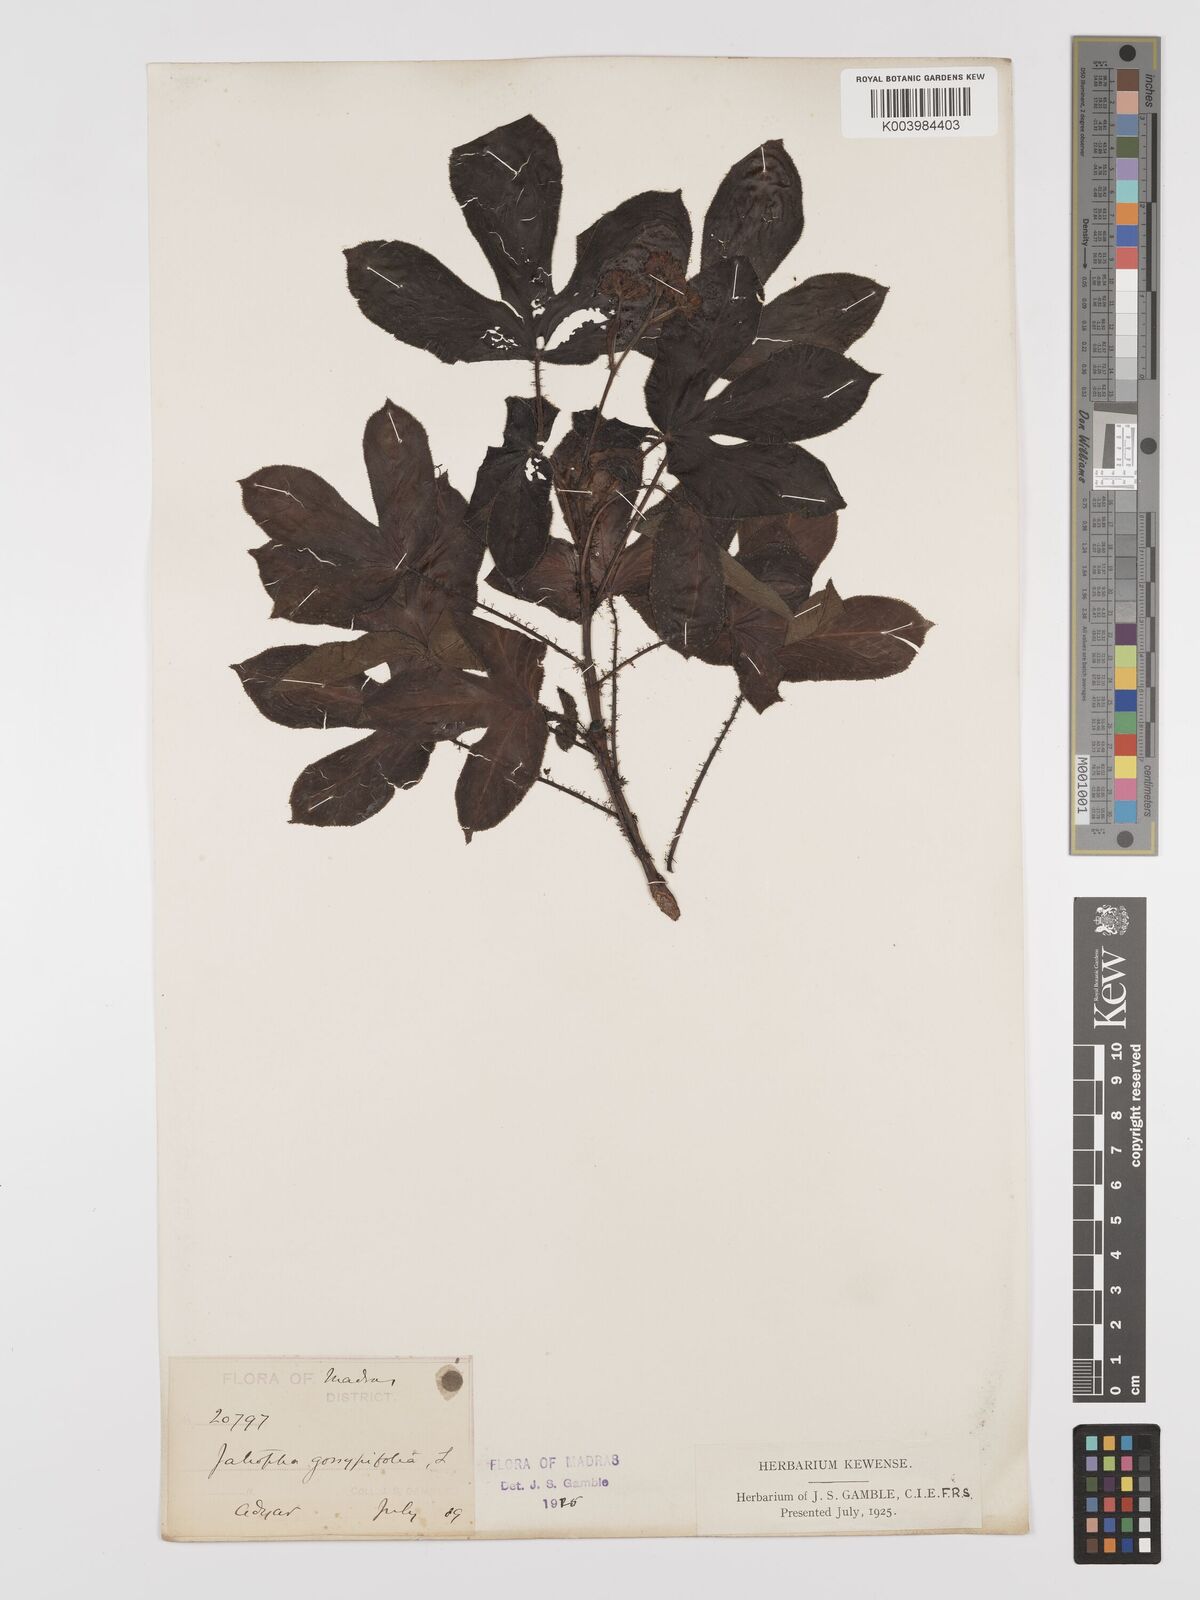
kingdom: Plantae
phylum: Tracheophyta
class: Magnoliopsida
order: Malpighiales
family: Euphorbiaceae
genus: Jatropha
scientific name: Jatropha gossypiifolia
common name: Bellyache bush
